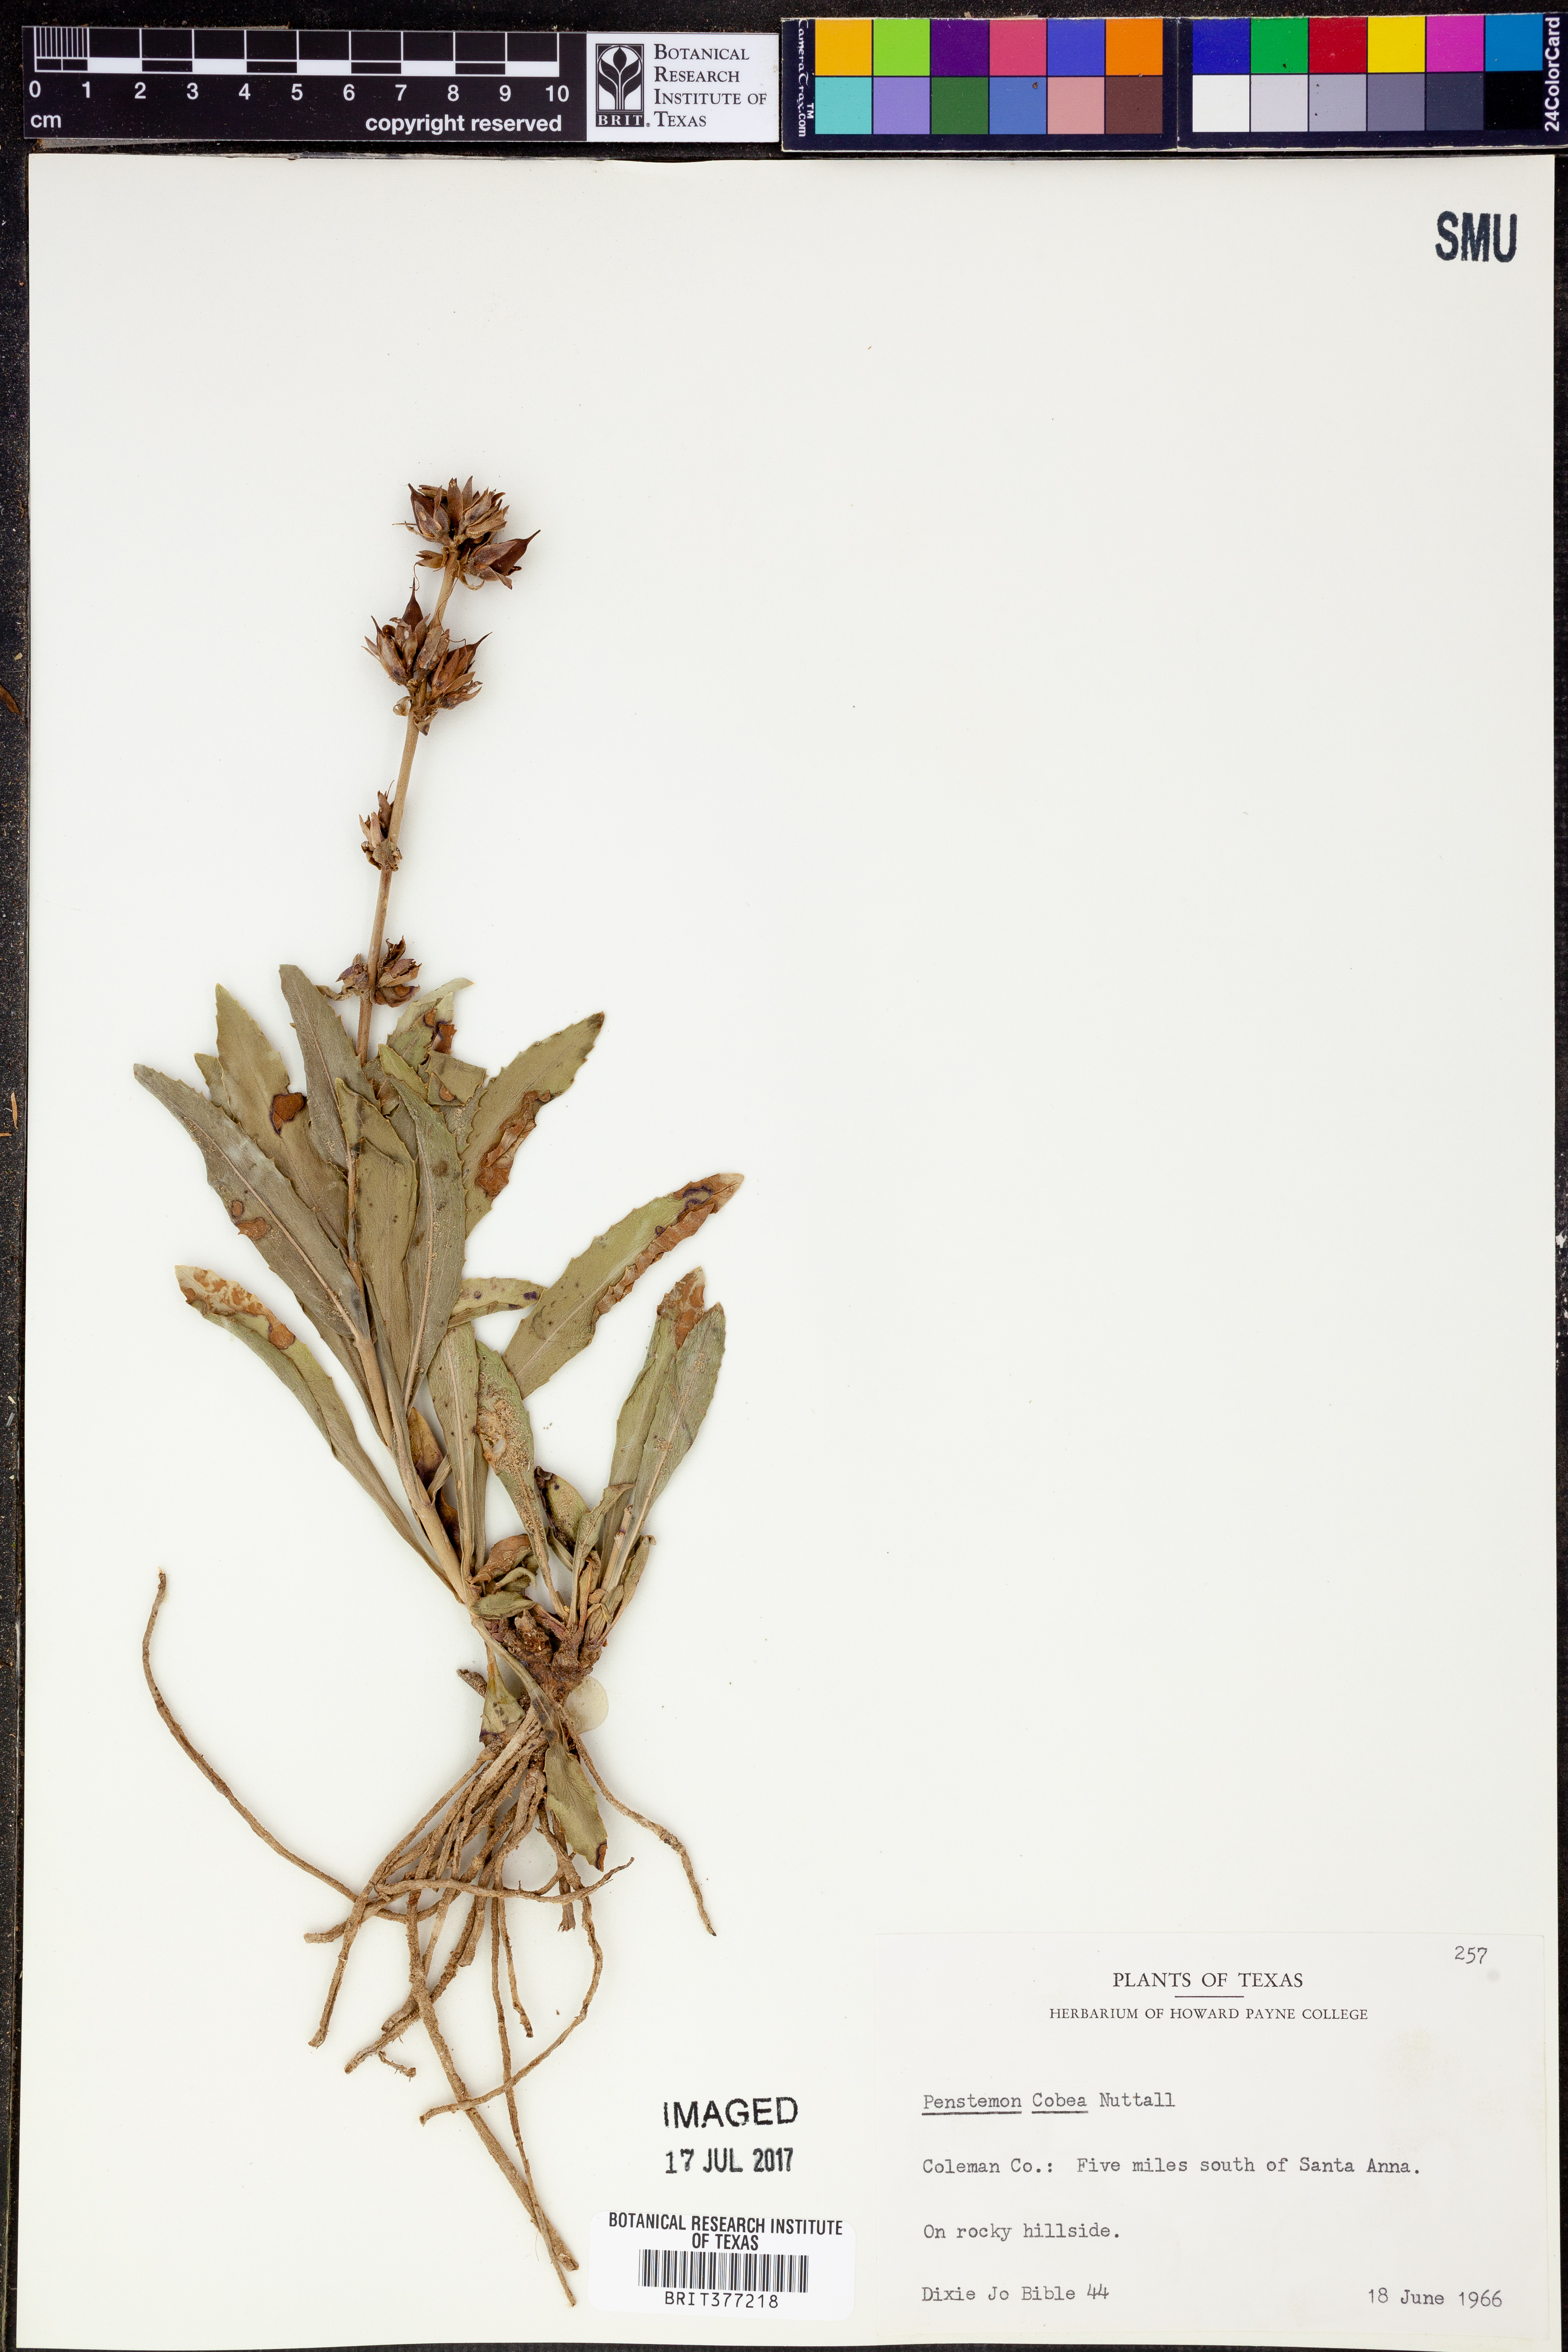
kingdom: Plantae
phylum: Tracheophyta
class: Magnoliopsida
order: Lamiales
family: Plantaginaceae
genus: Penstemon
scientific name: Penstemon cobaea
